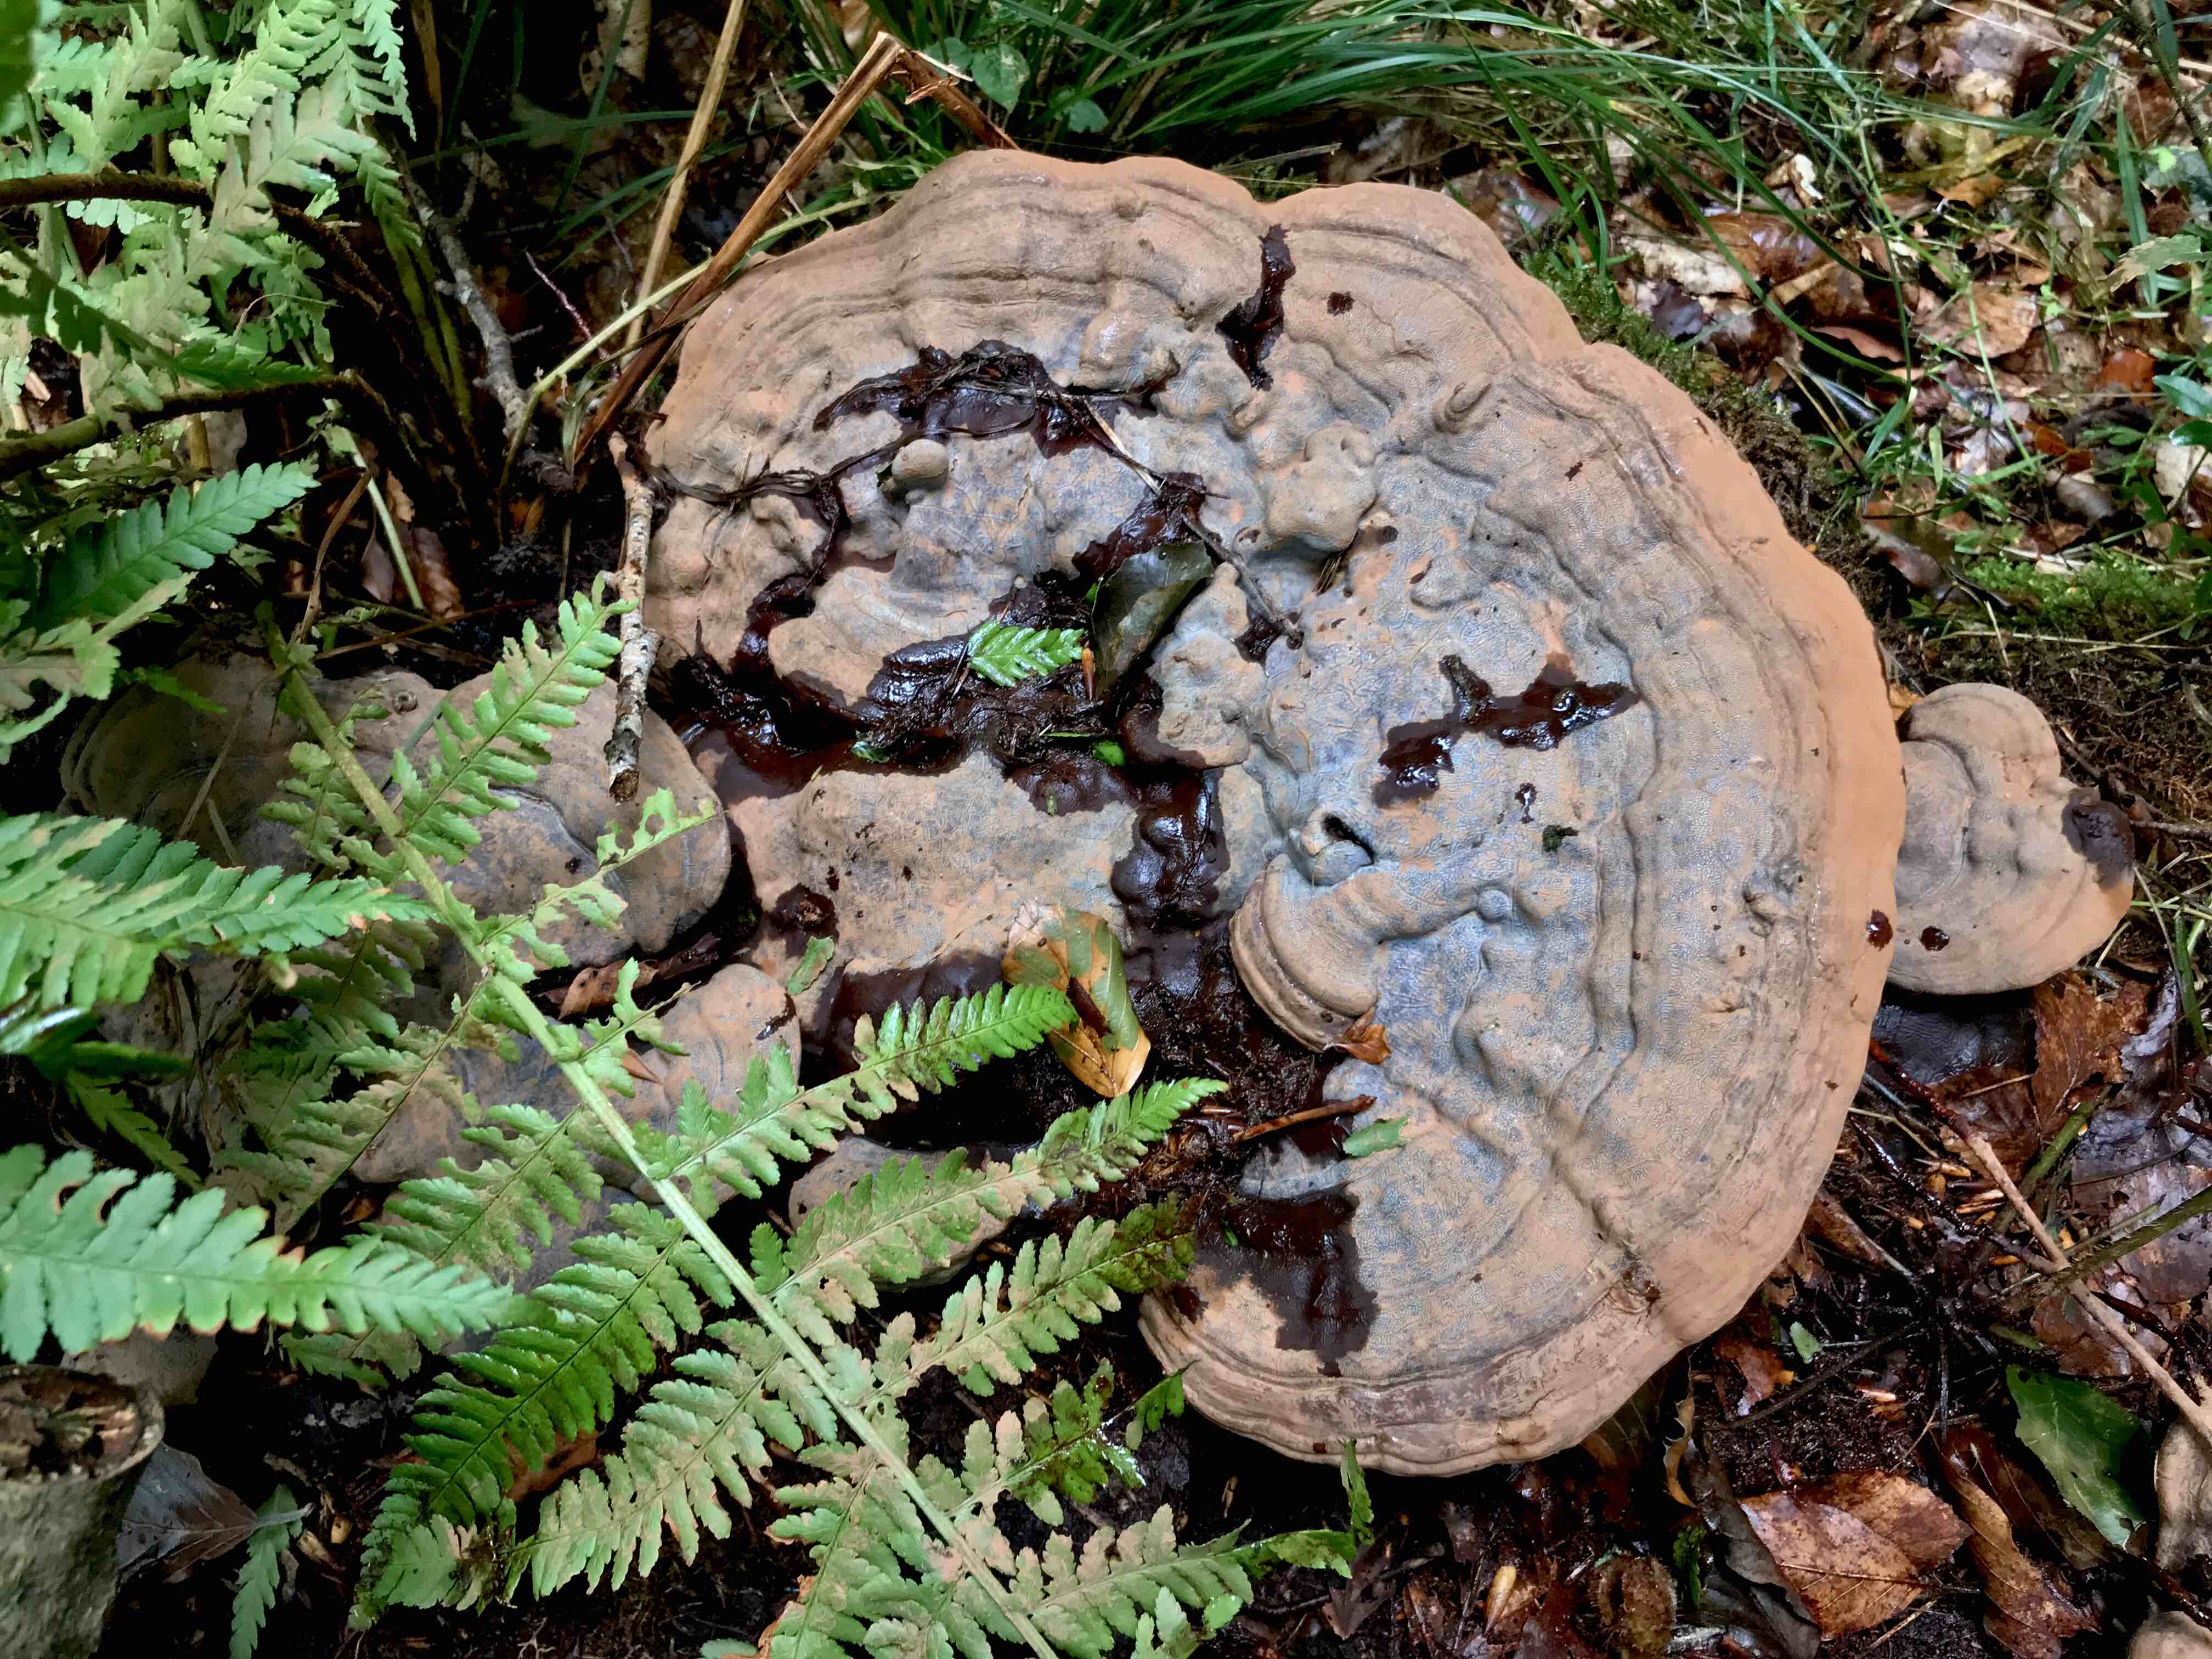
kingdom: Fungi
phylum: Basidiomycota
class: Agaricomycetes
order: Polyporales
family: Polyporaceae
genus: Ganoderma
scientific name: Ganoderma pfeifferi
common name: kobberrød lakporesvamp
